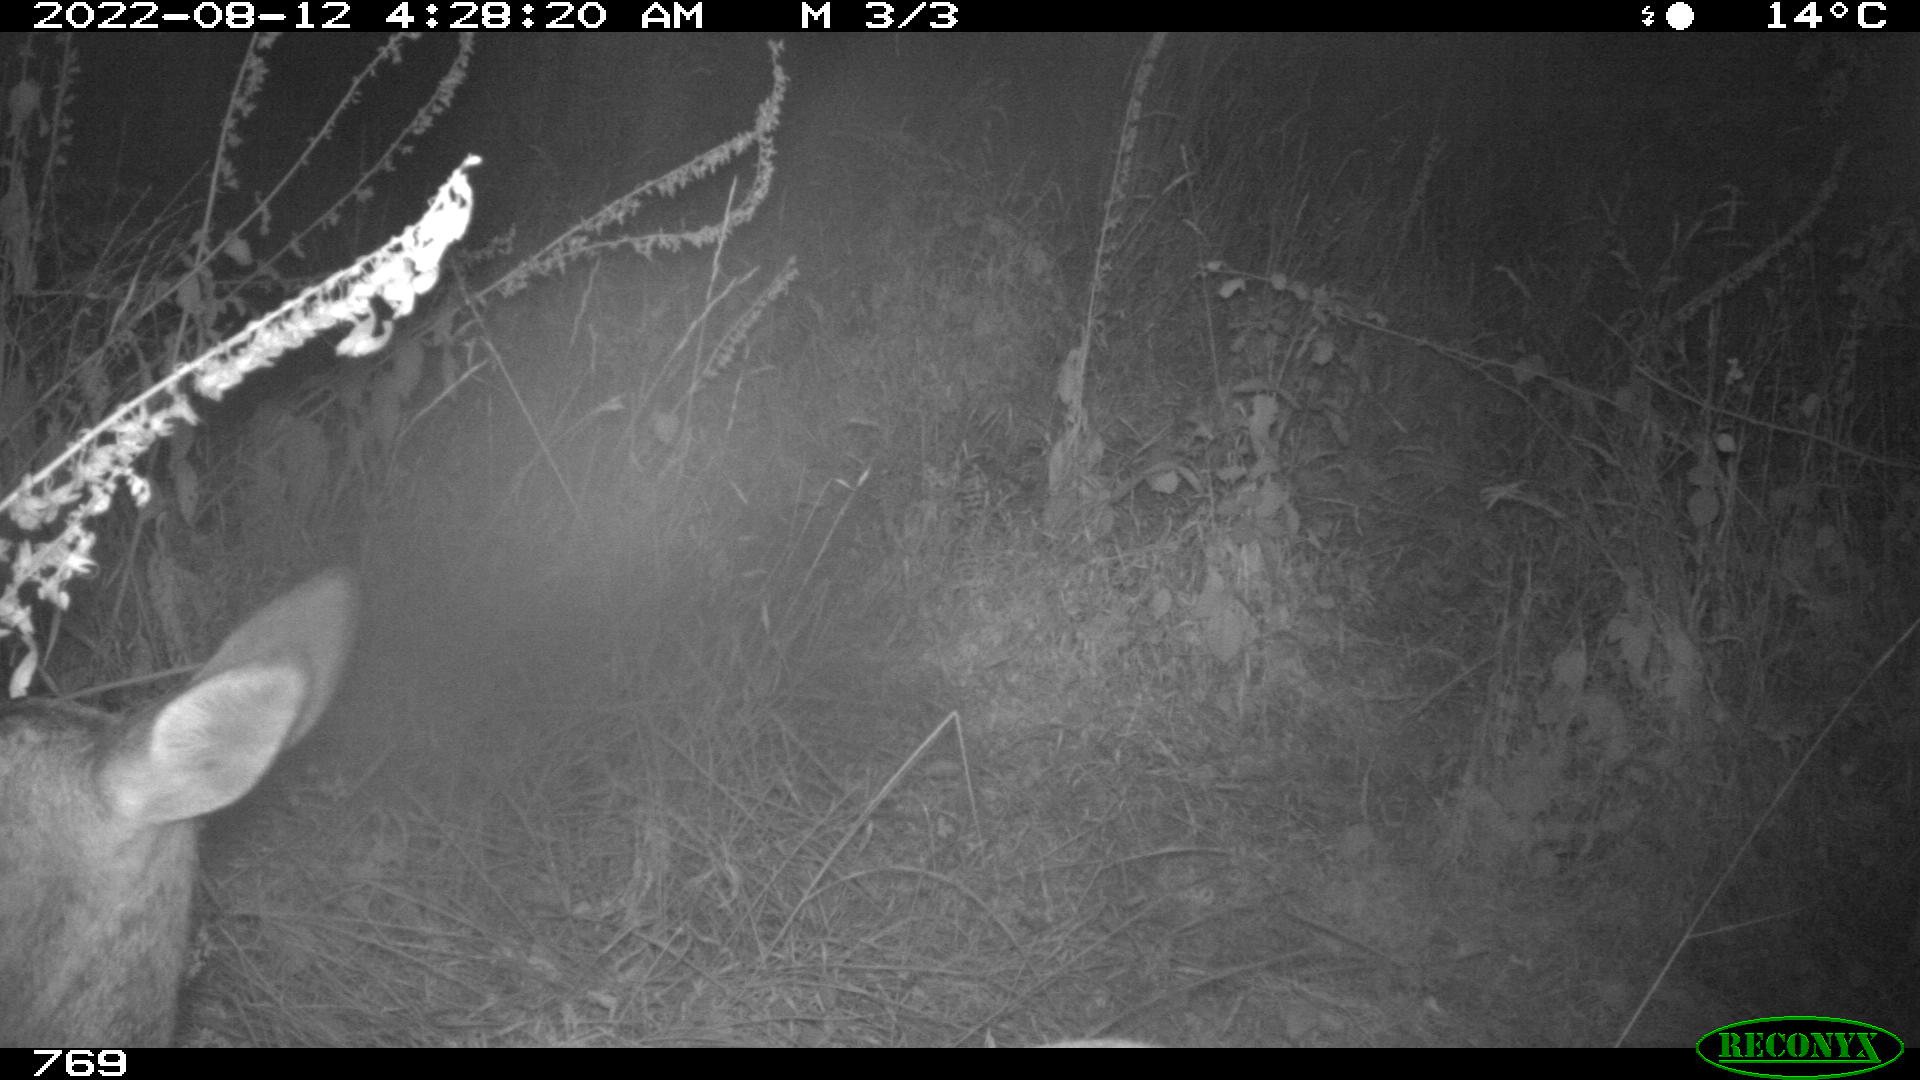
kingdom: Animalia
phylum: Chordata
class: Mammalia
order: Artiodactyla
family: Cervidae
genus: Capreolus
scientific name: Capreolus capreolus
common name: Western roe deer
